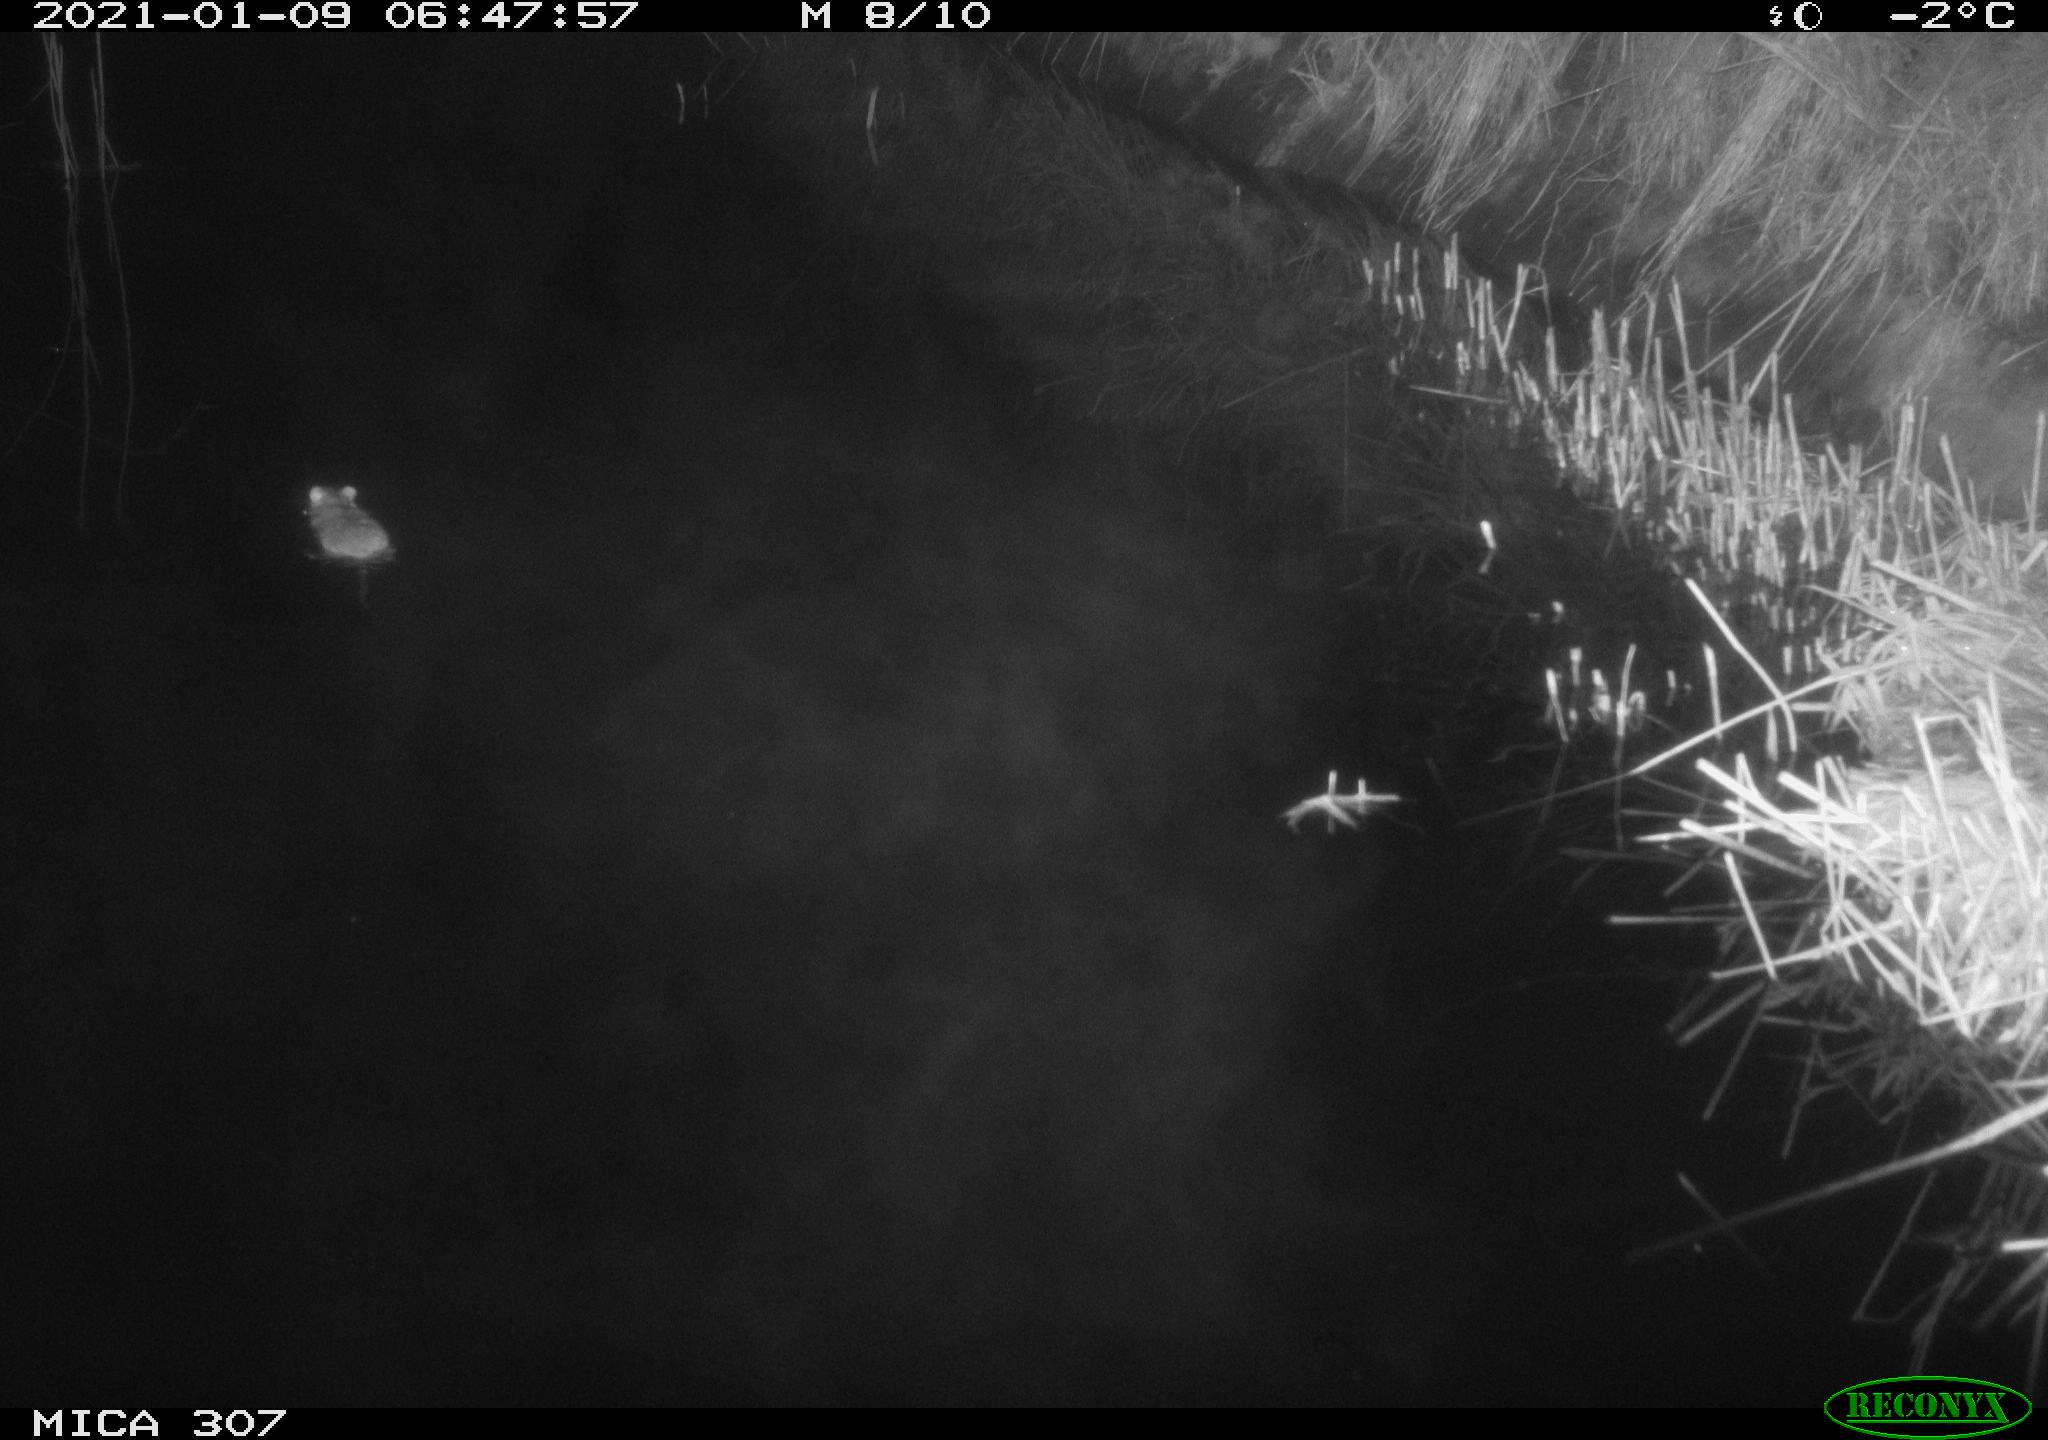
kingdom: Animalia
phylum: Chordata
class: Mammalia
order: Rodentia
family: Muridae
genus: Rattus
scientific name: Rattus norvegicus
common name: Brown rat
